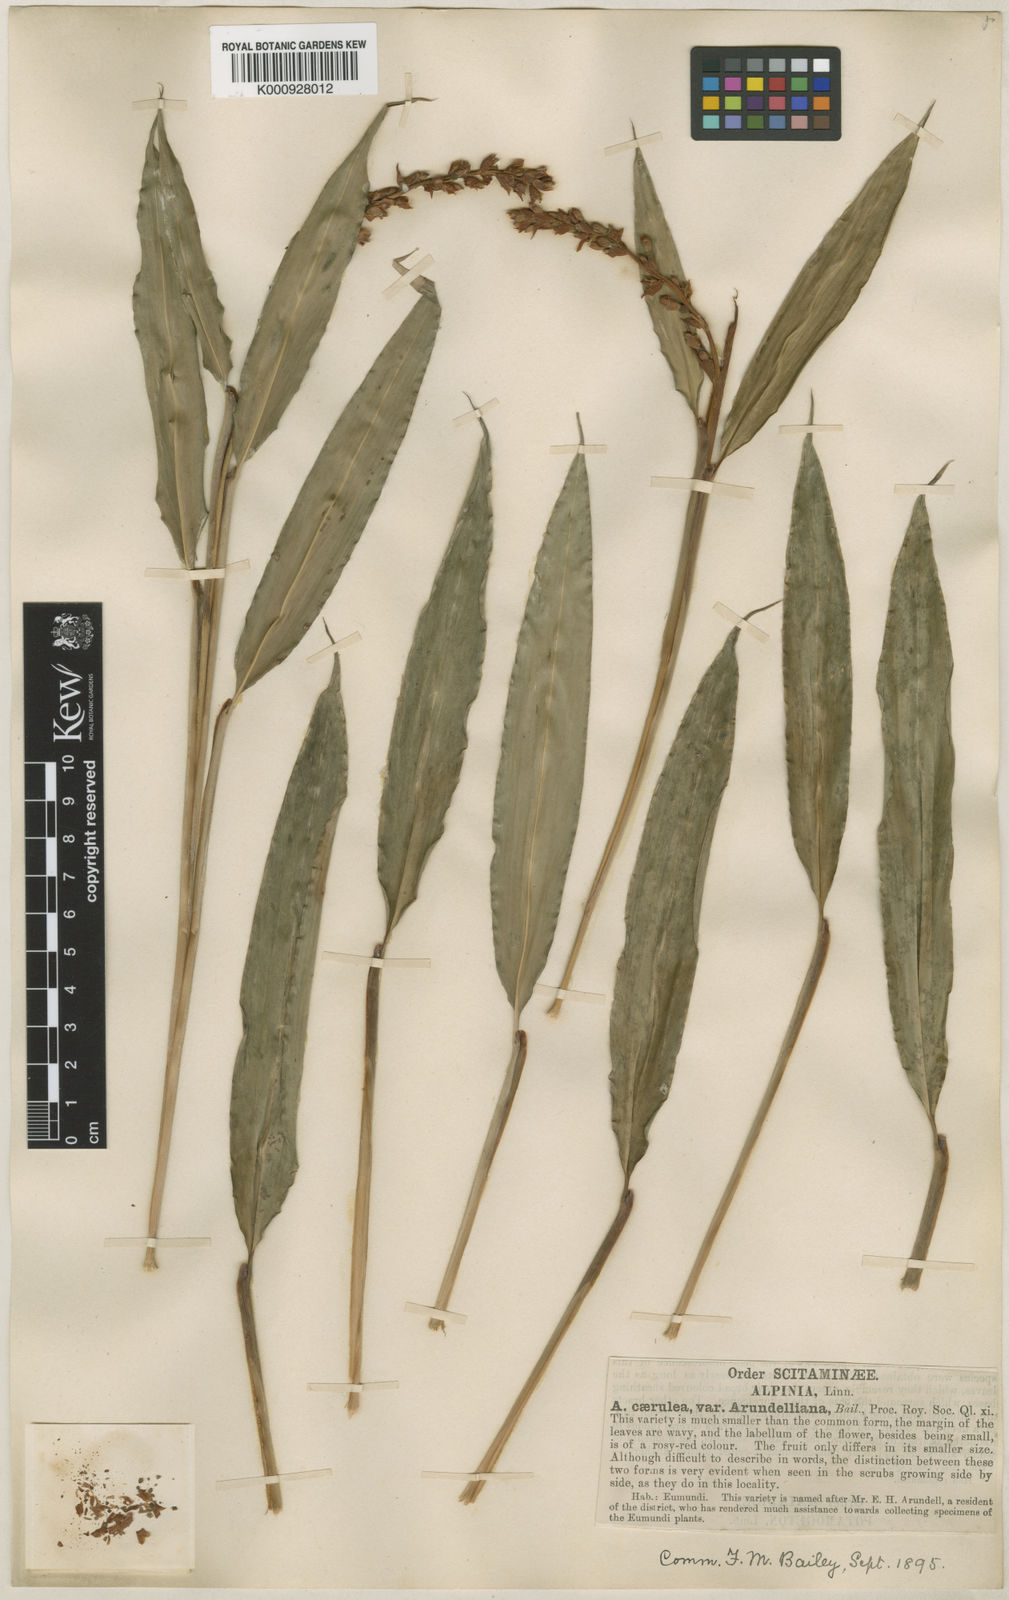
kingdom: Plantae
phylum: Tracheophyta
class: Liliopsida
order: Zingiberales
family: Zingiberaceae
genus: Alpinia
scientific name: Alpinia arundelliana
